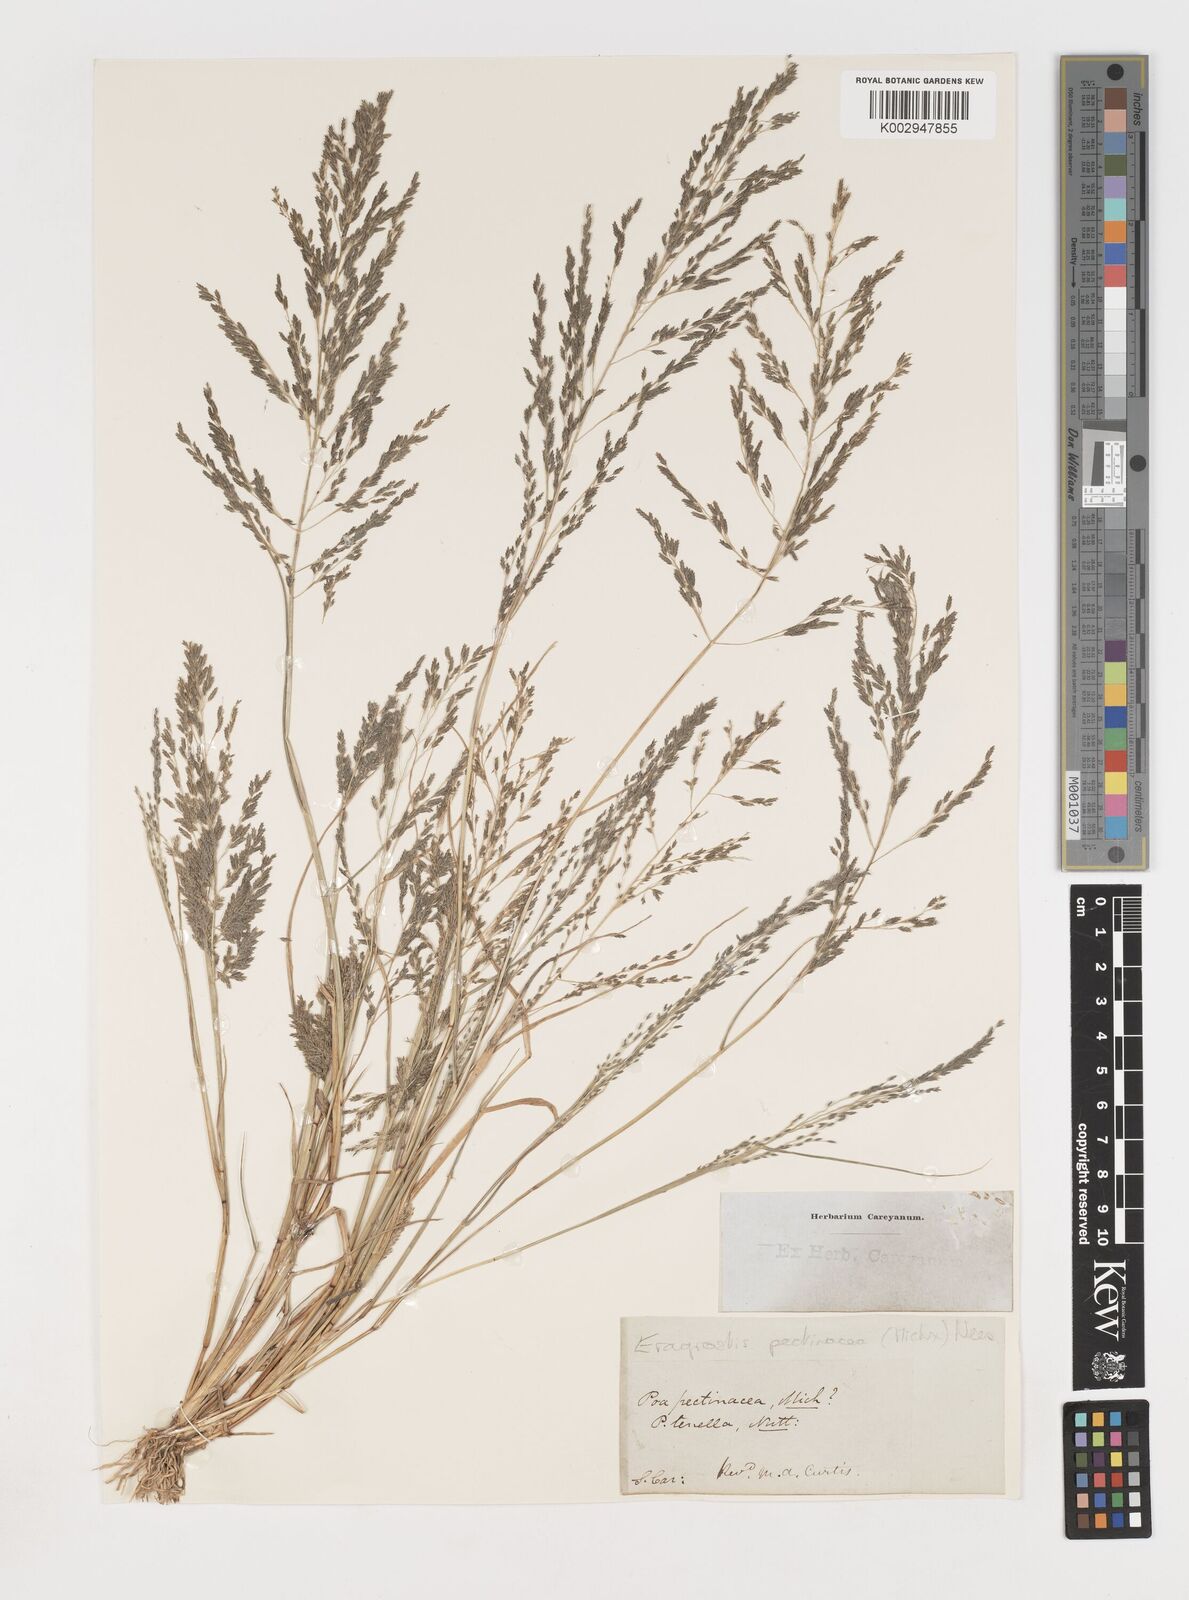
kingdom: Plantae
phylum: Tracheophyta
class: Liliopsida
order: Poales
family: Poaceae
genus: Eragrostis
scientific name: Eragrostis pectinacea
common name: Tufted lovegrass
